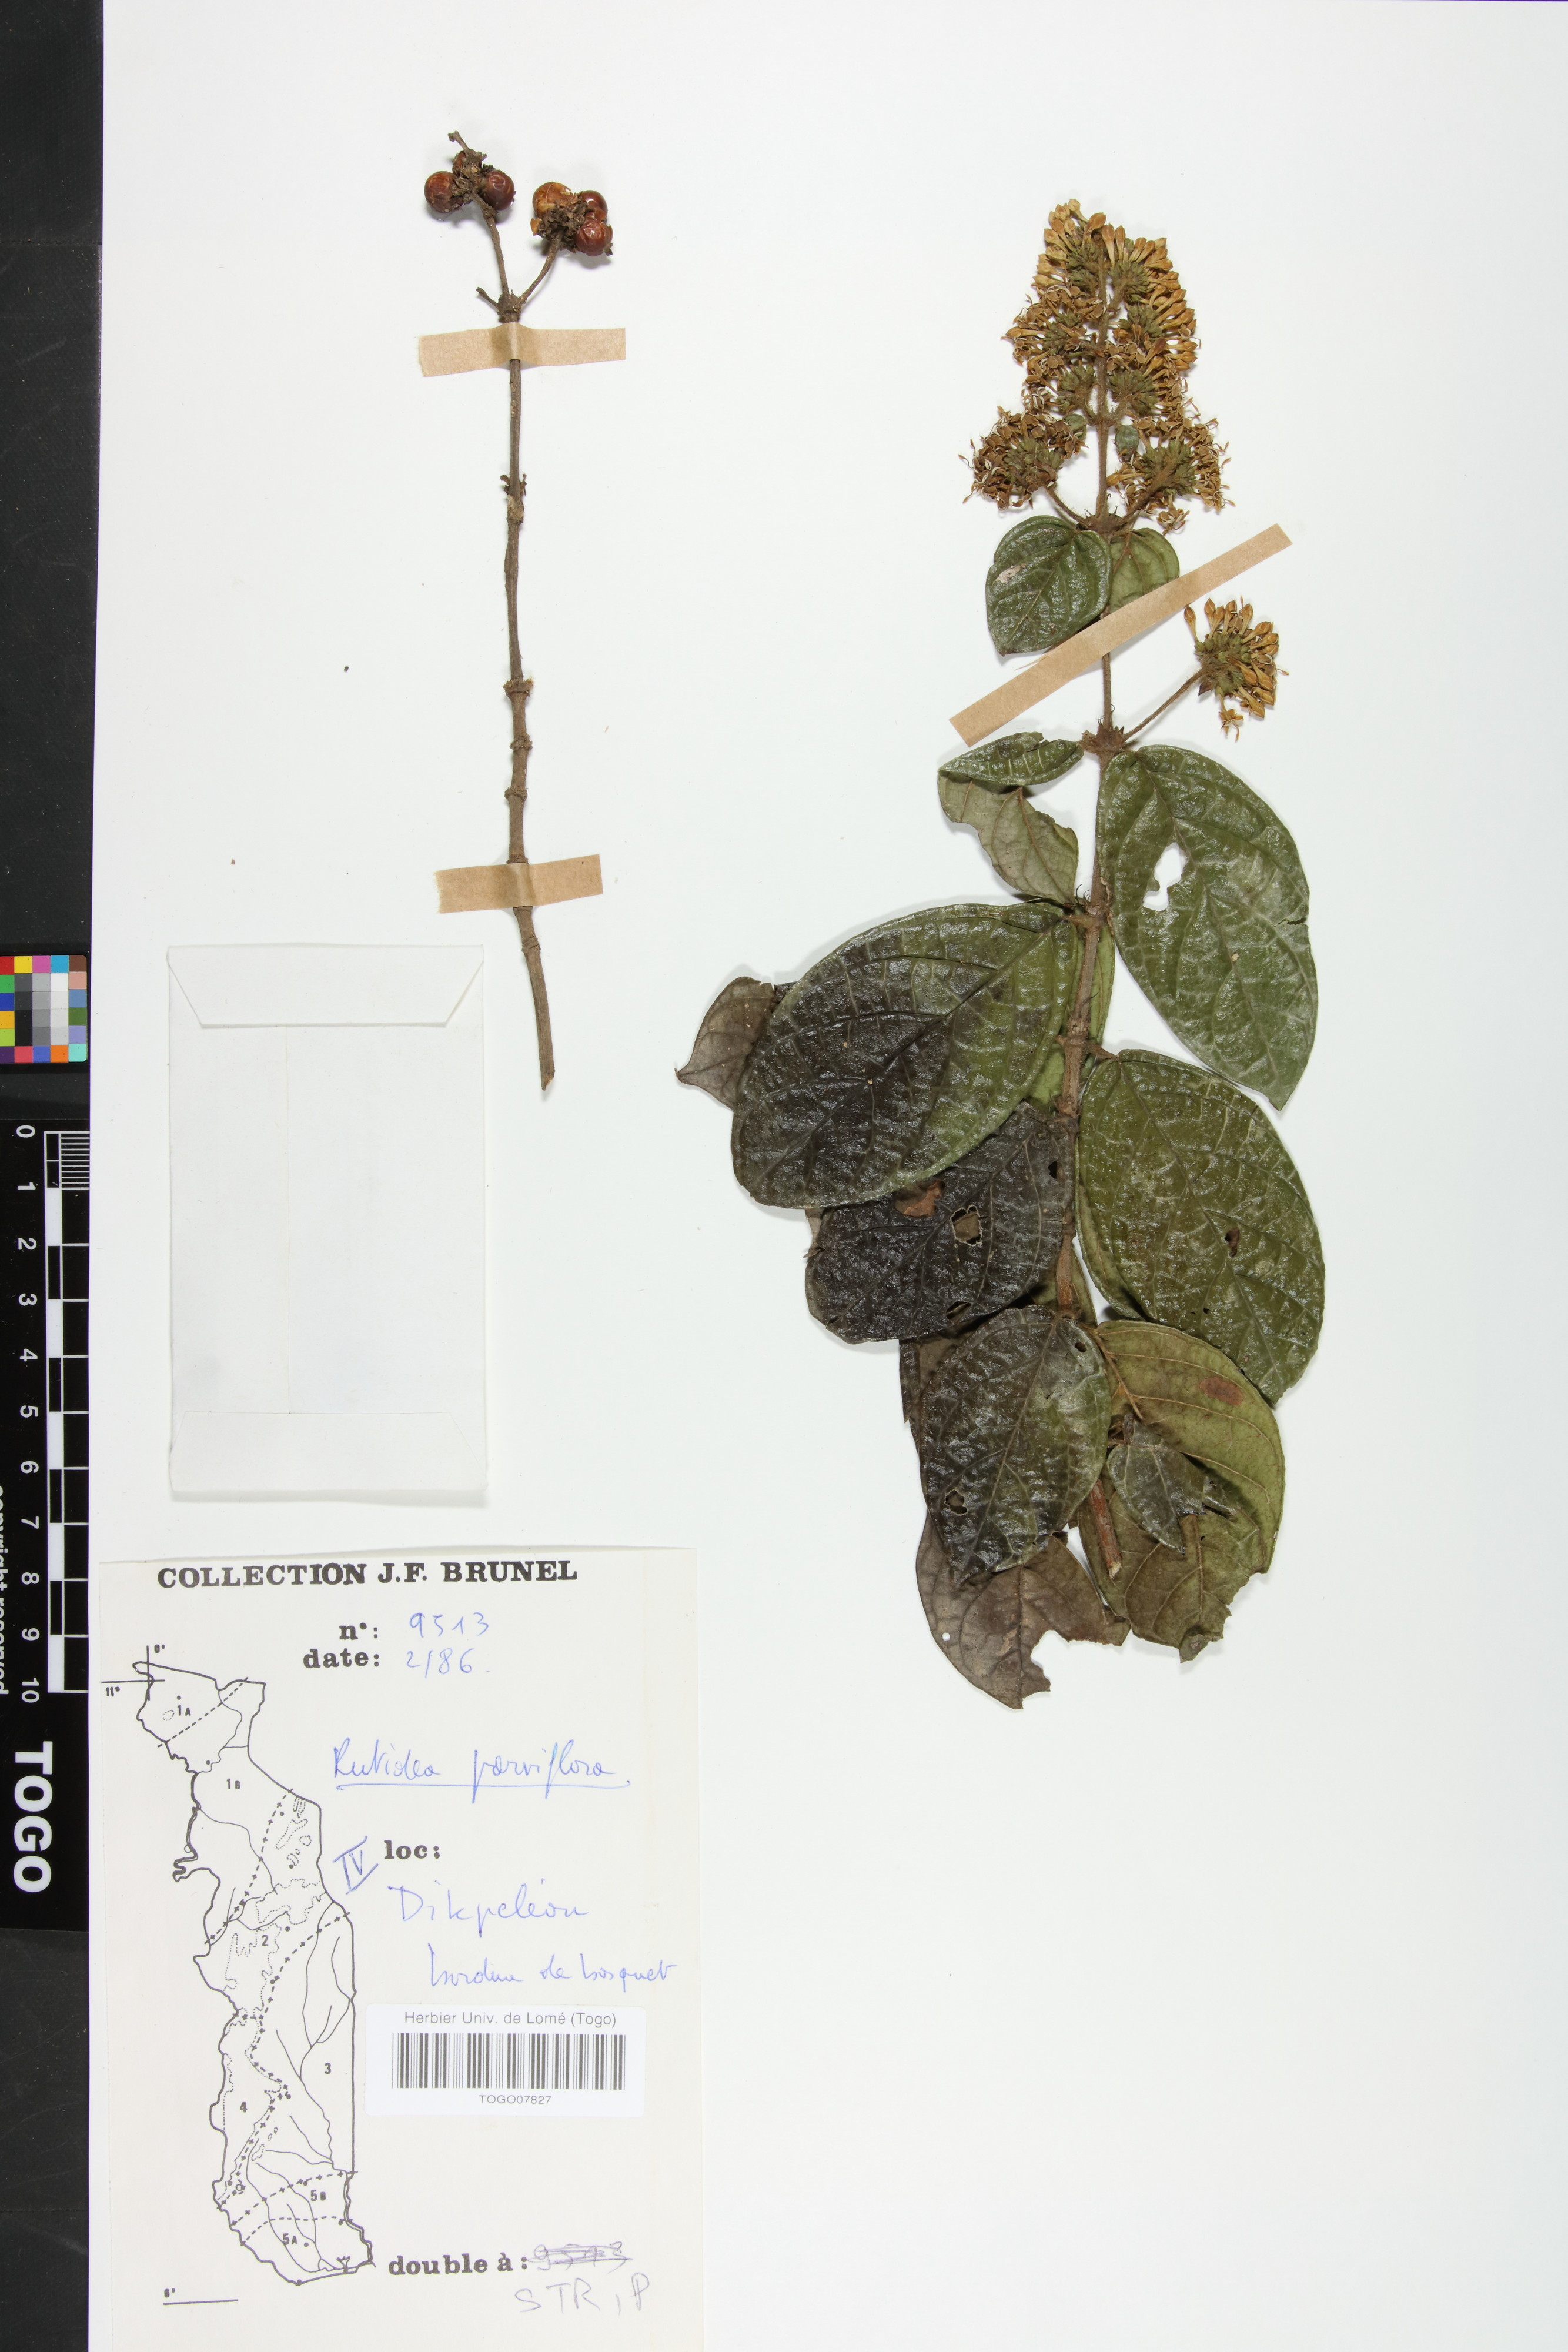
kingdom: Plantae
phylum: Tracheophyta
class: Magnoliopsida
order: Gentianales
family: Rubiaceae
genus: Rutidea
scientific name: Rutidea parviflora
